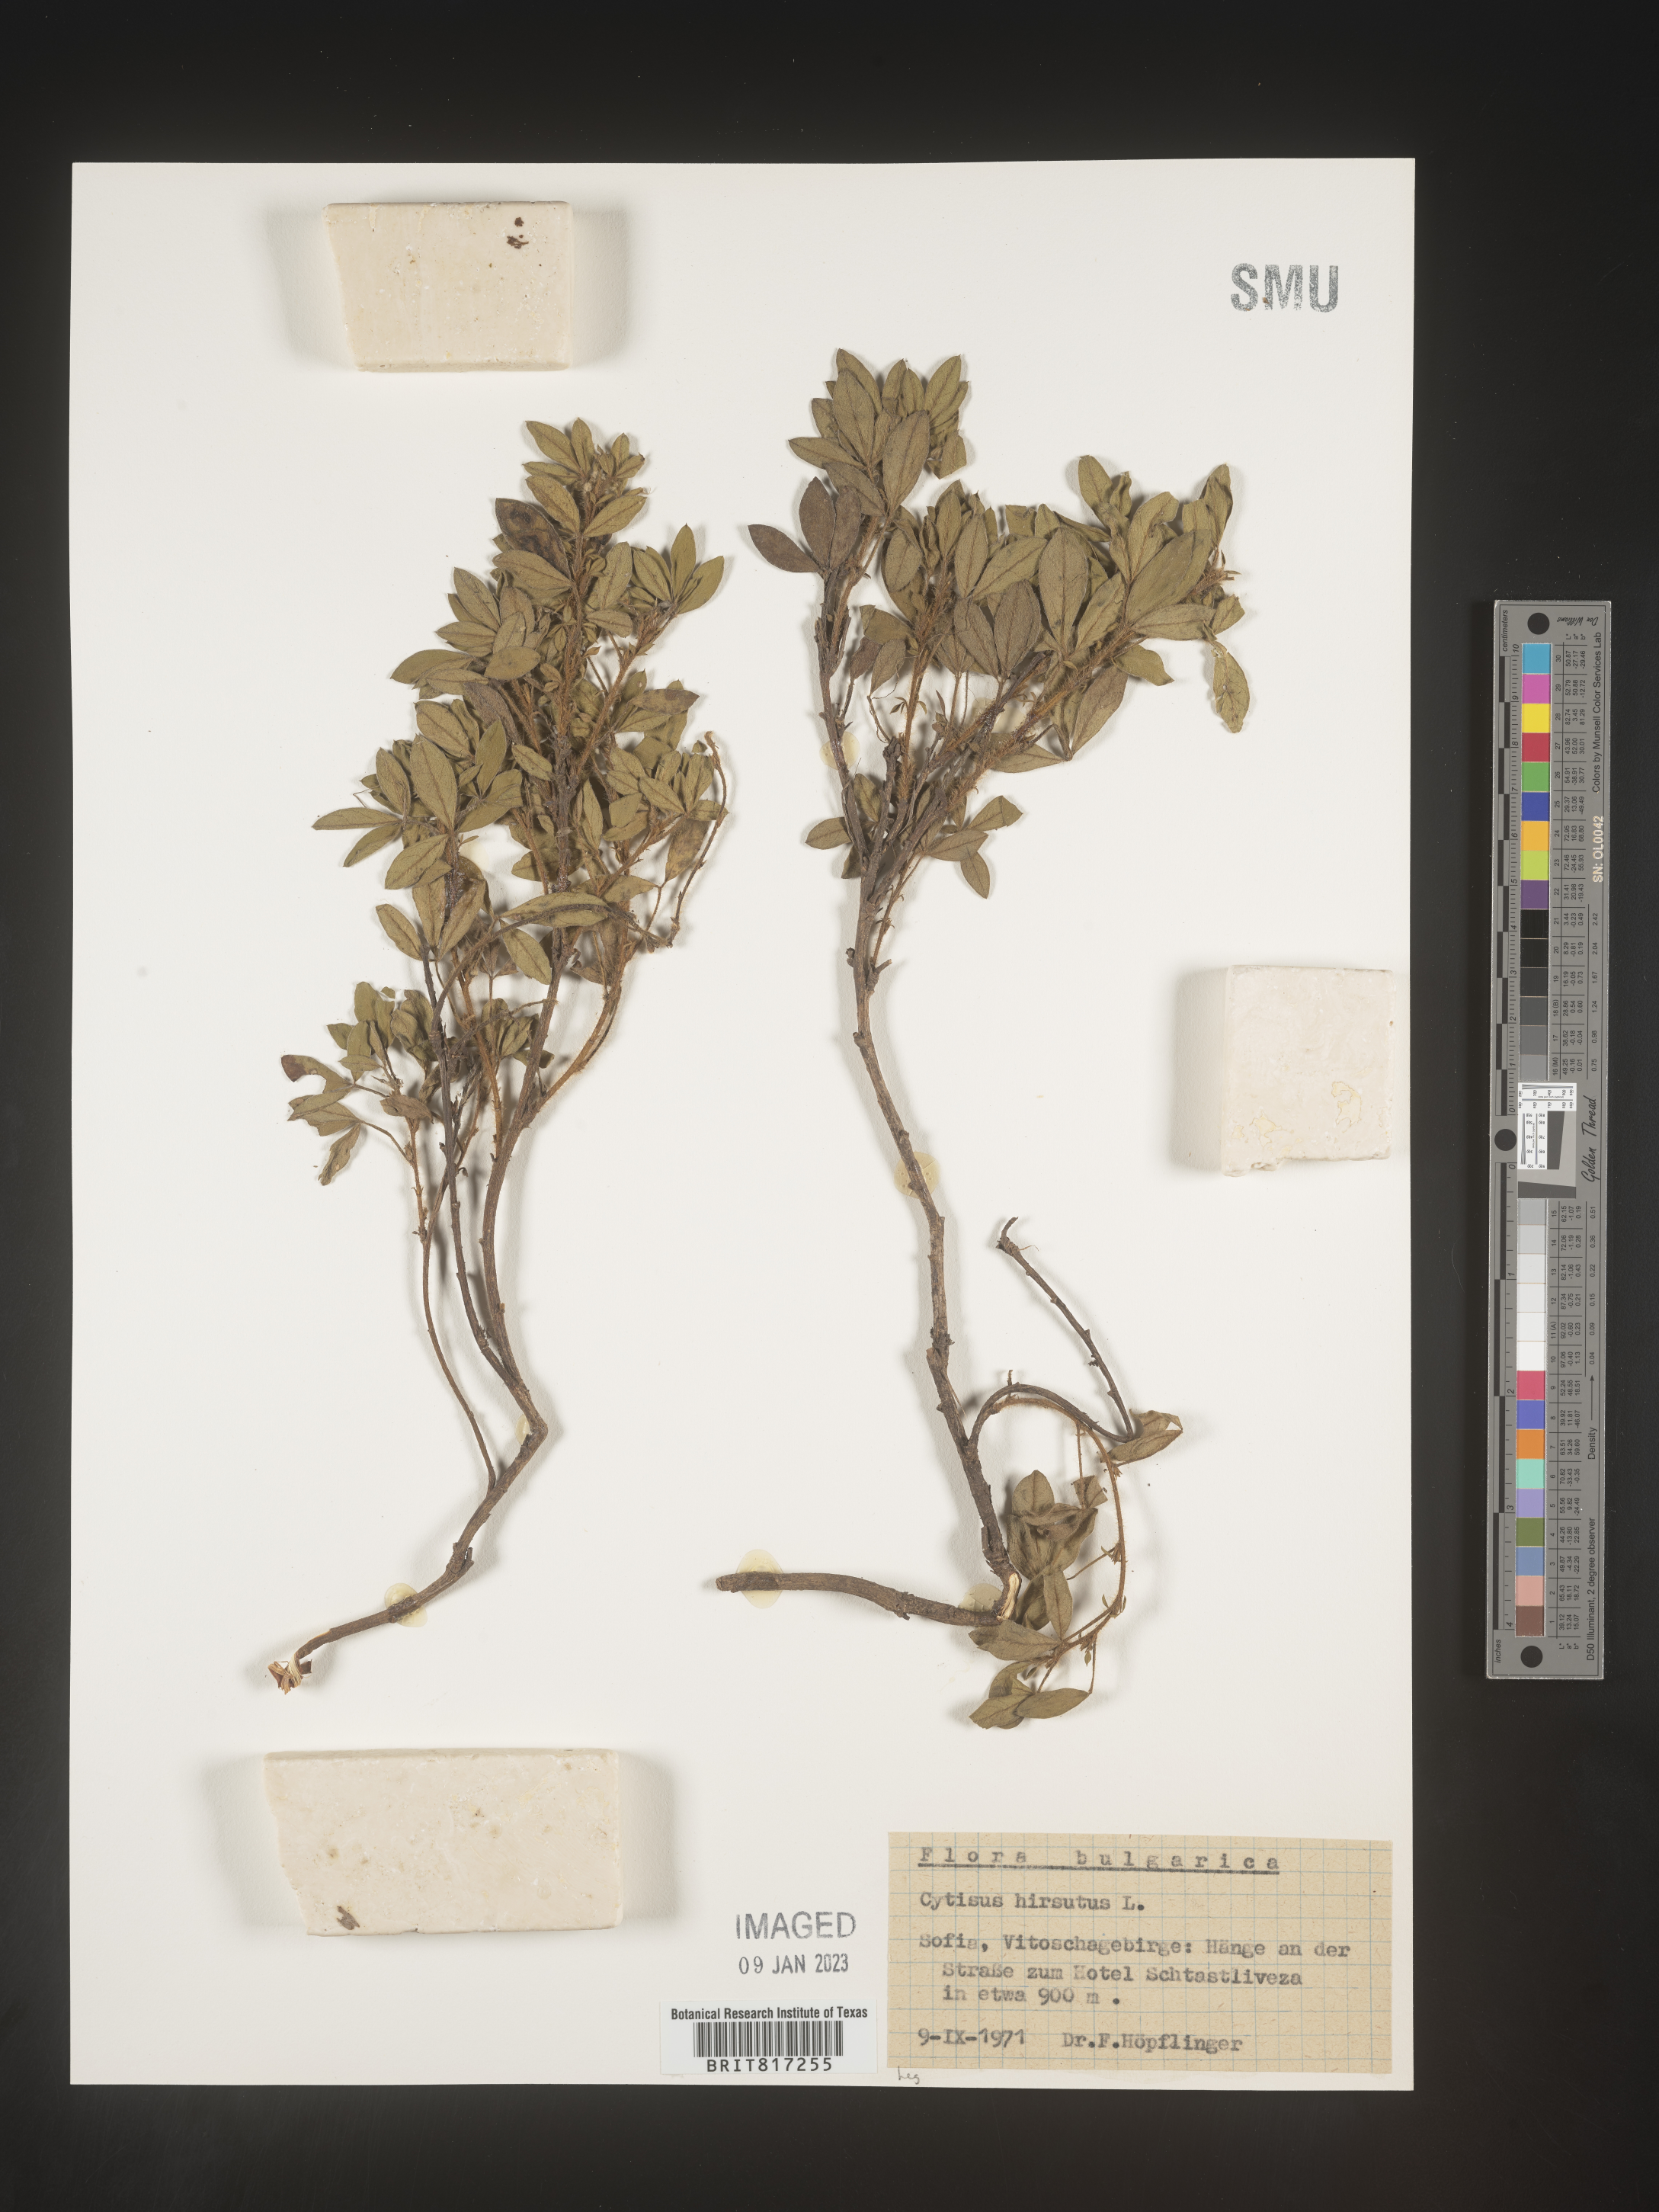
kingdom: Plantae
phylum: Tracheophyta
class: Magnoliopsida
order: Fabales
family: Fabaceae
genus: Cytisus
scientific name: Cytisus
